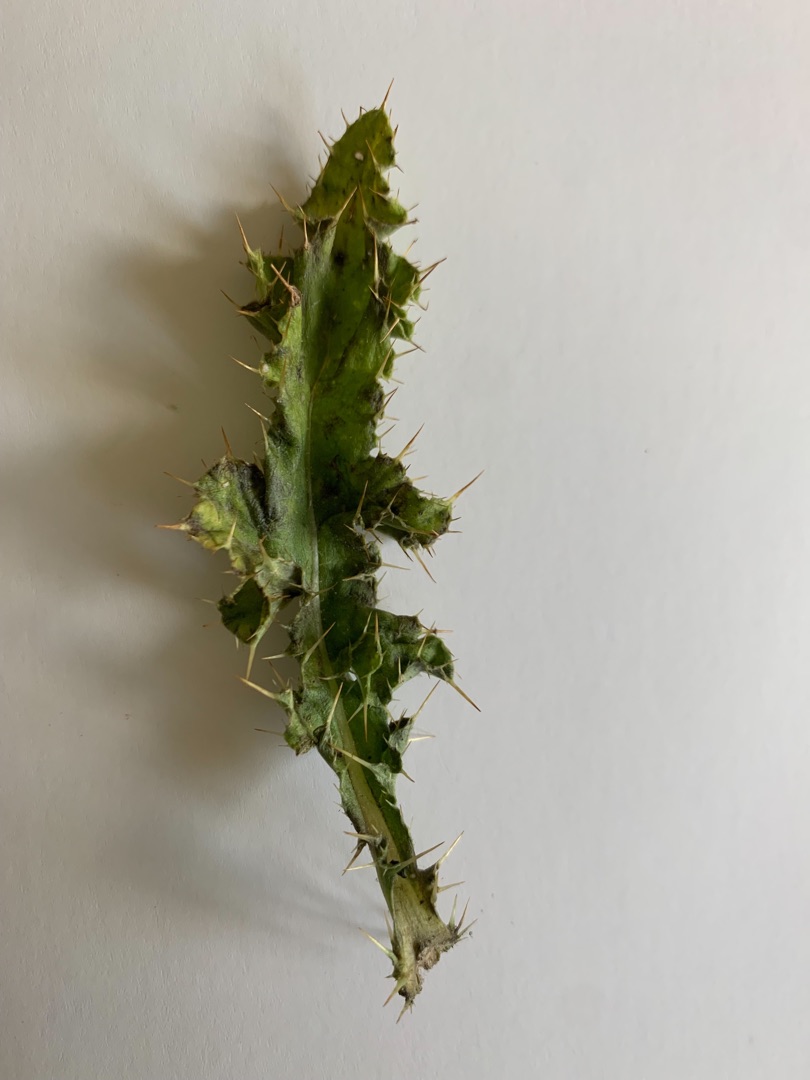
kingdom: Plantae
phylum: Tracheophyta
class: Magnoliopsida
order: Asterales
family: Asteraceae
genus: Cirsium
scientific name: Cirsium arvense
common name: Ager-tidsel
